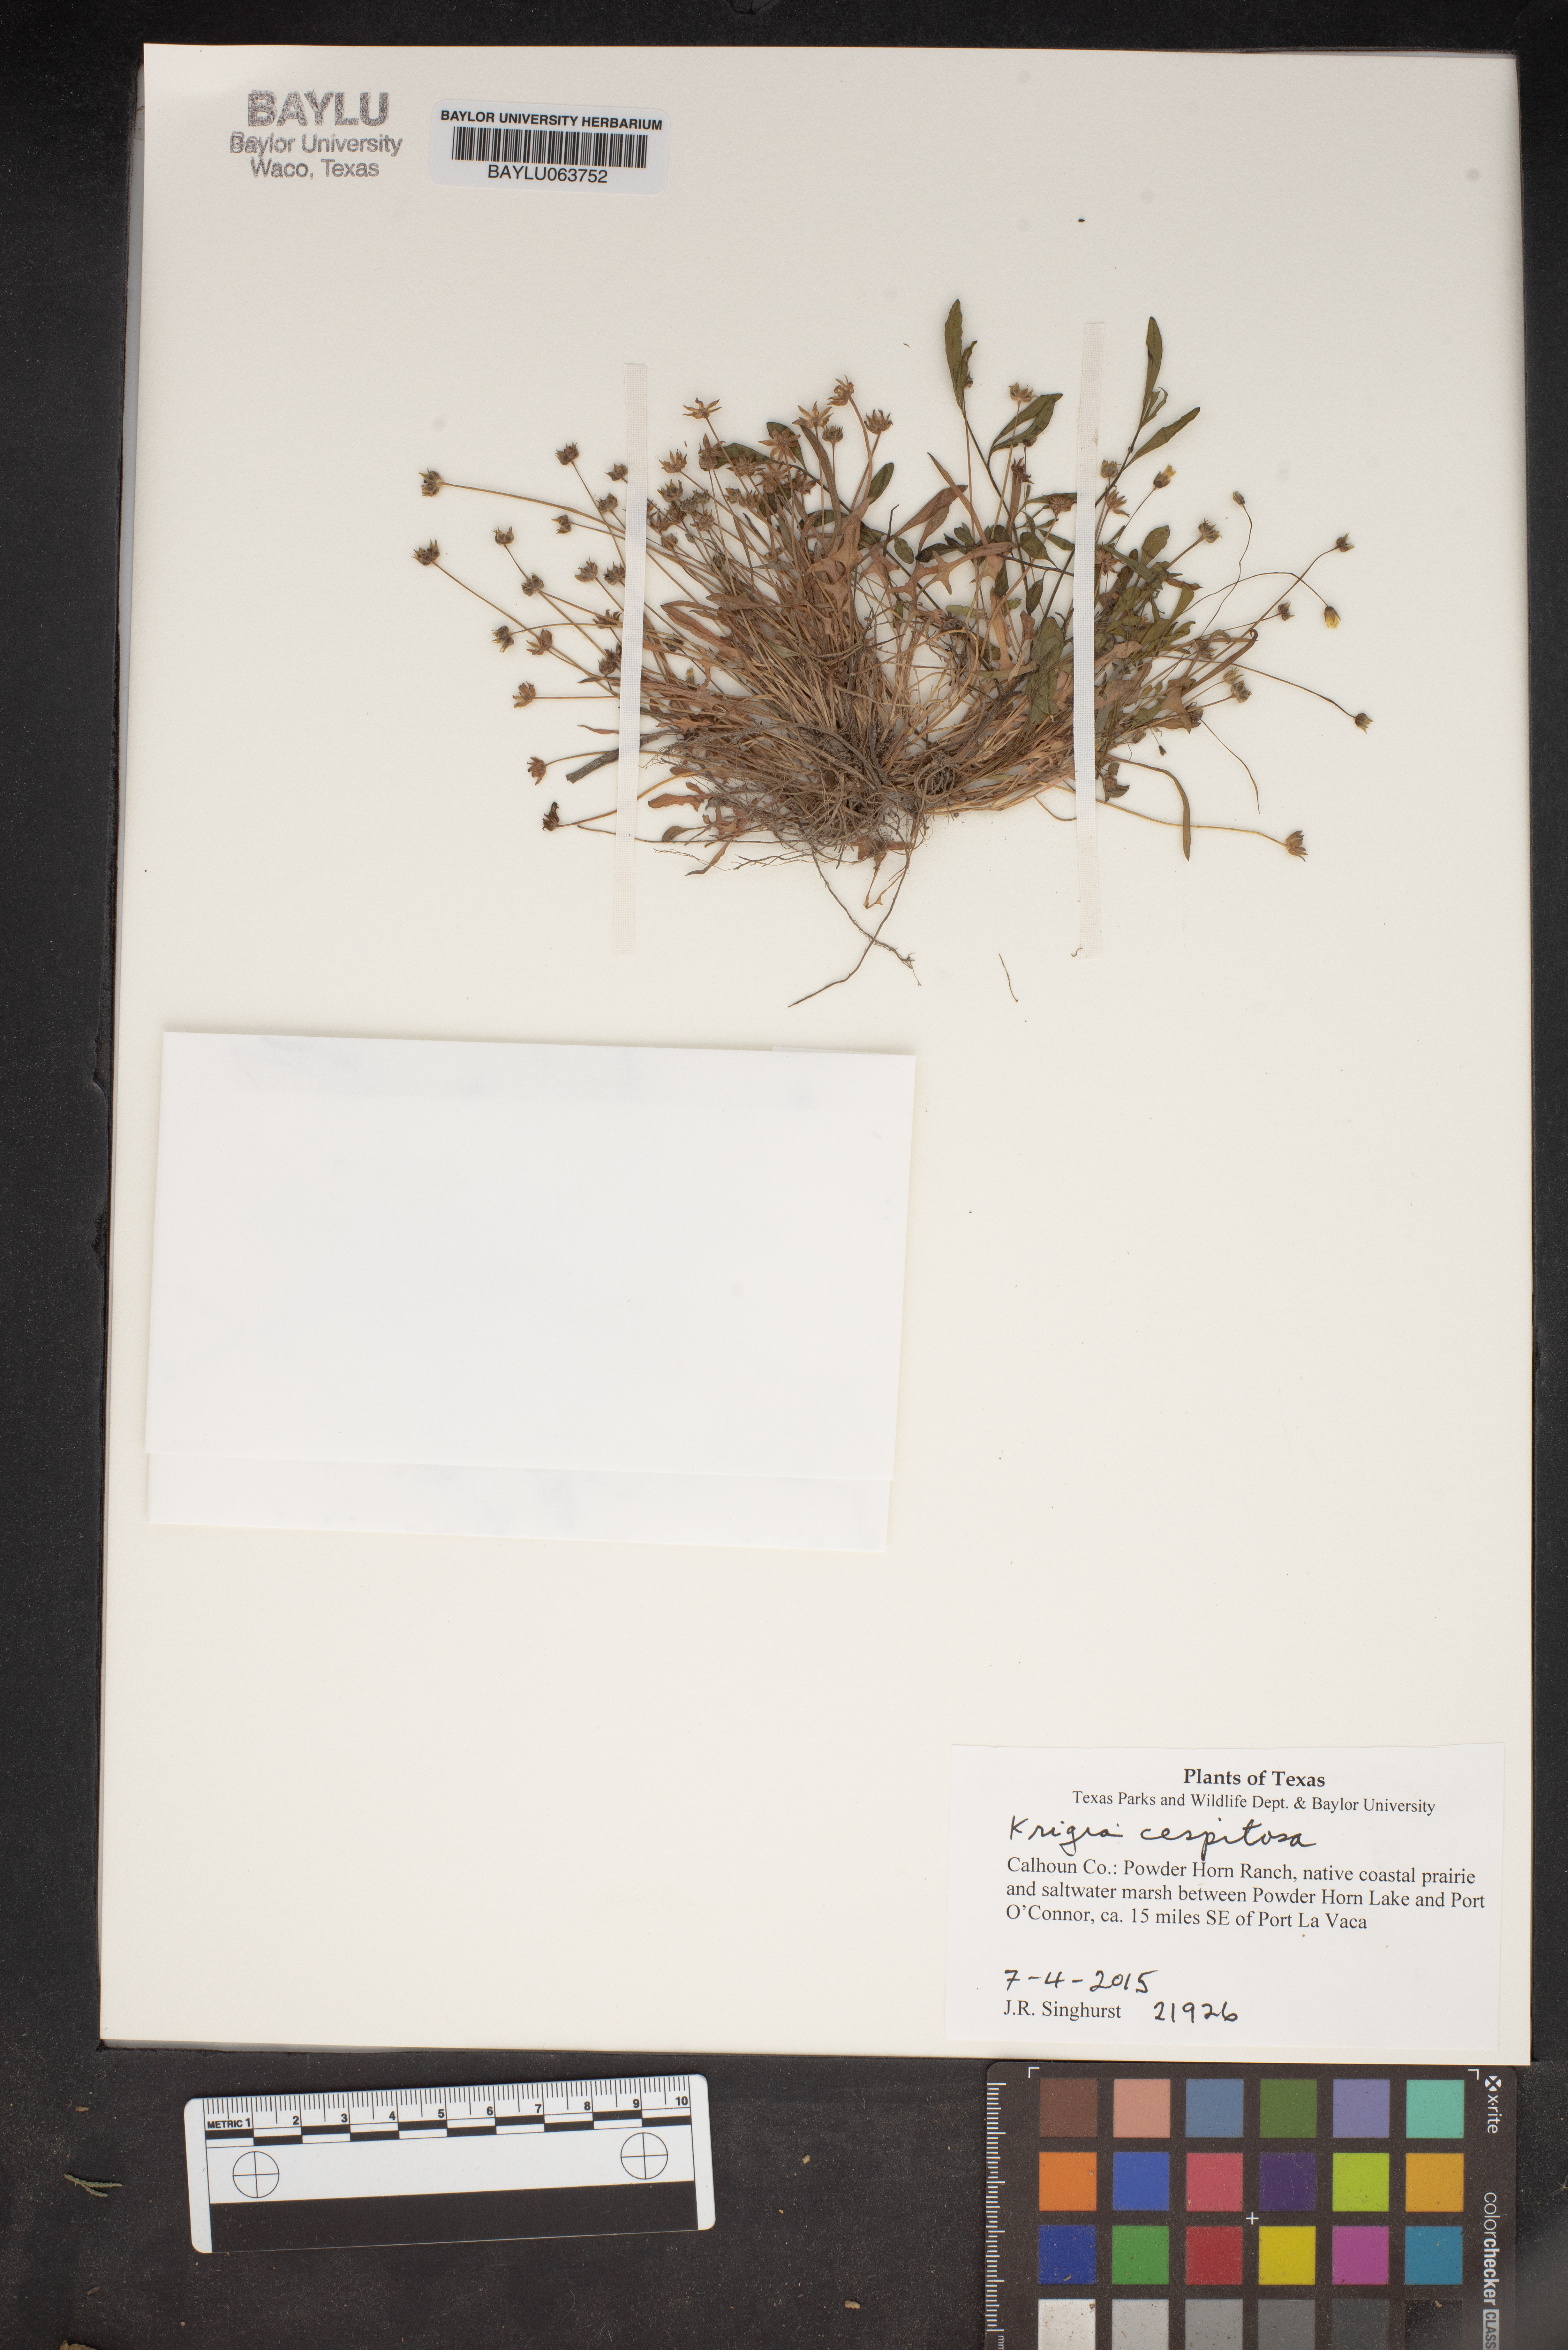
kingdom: Plantae
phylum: Tracheophyta
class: Magnoliopsida
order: Asterales
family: Asteraceae
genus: Krigia
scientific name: Krigia cespitosa
